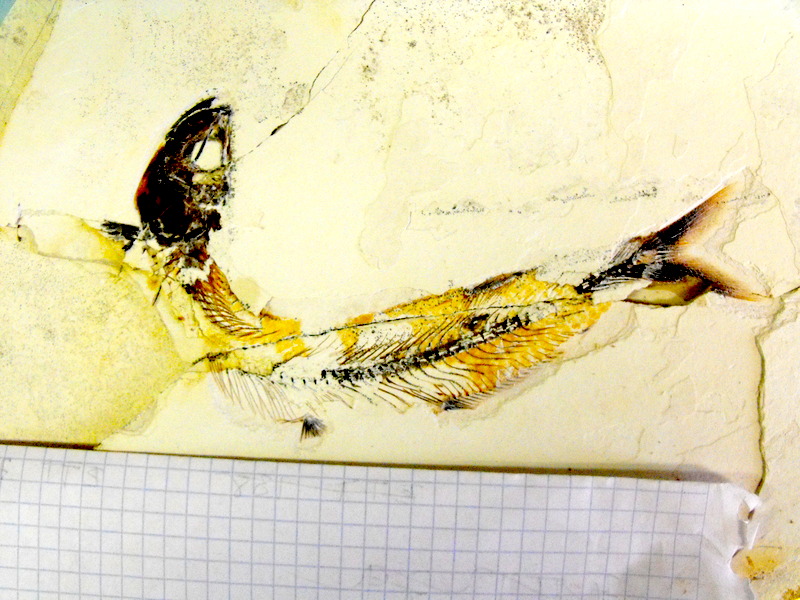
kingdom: Animalia
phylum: Chordata
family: Allothrissopidae
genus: Allothrissops
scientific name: Allothrissops mesogaster
